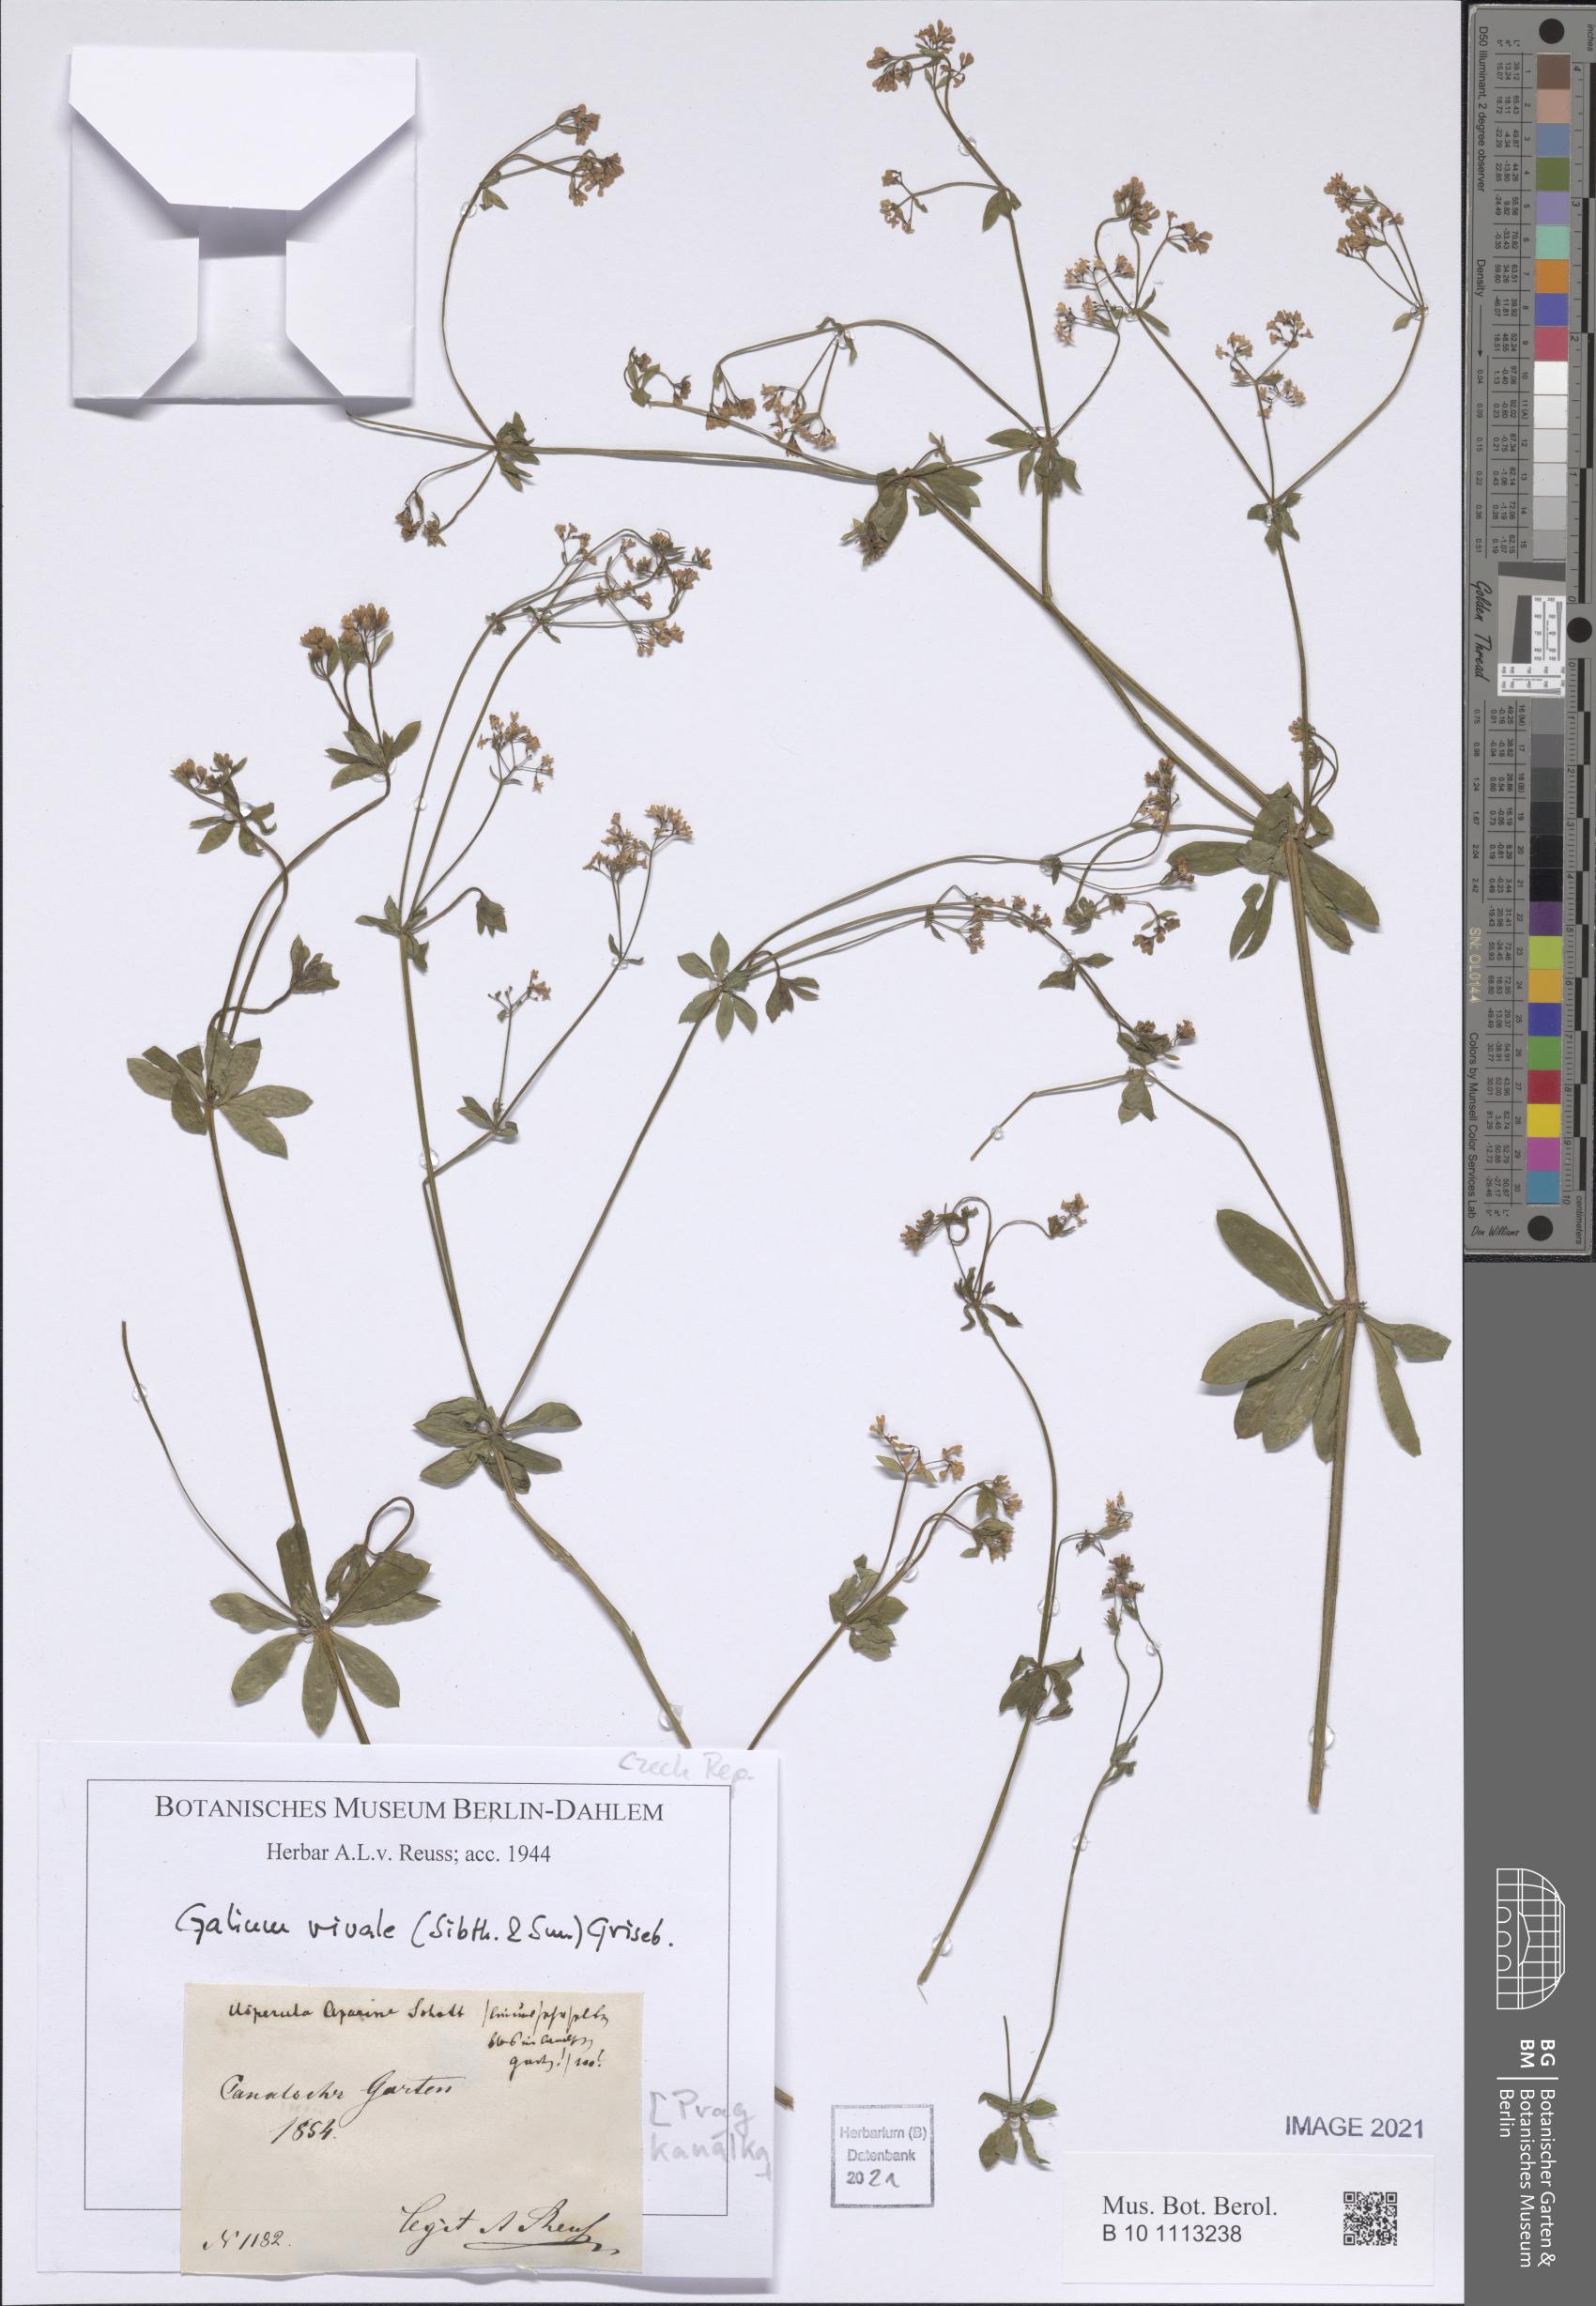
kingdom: Plantae
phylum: Tracheophyta
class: Magnoliopsida
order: Gentianales
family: Rubiaceae
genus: Galium
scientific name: Galium rivale
